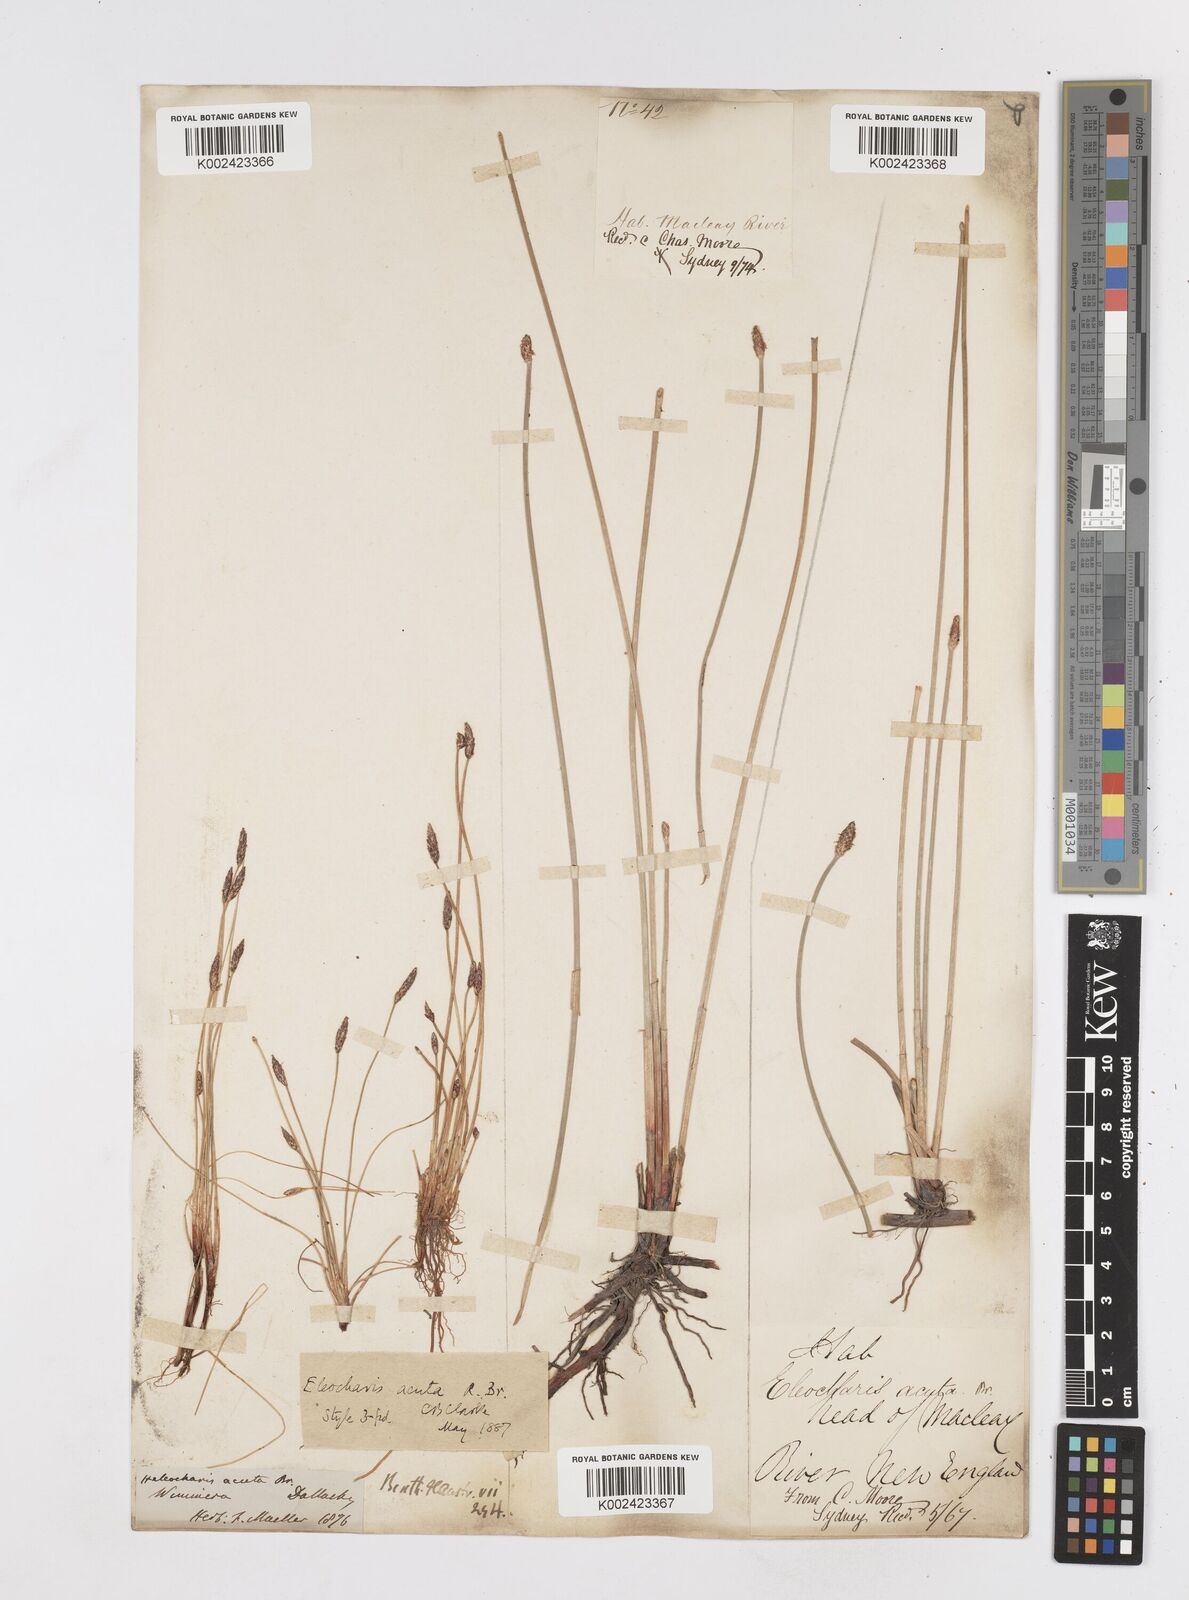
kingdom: Plantae
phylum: Tracheophyta
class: Liliopsida
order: Poales
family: Cyperaceae
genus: Eleocharis
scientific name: Eleocharis acuta
